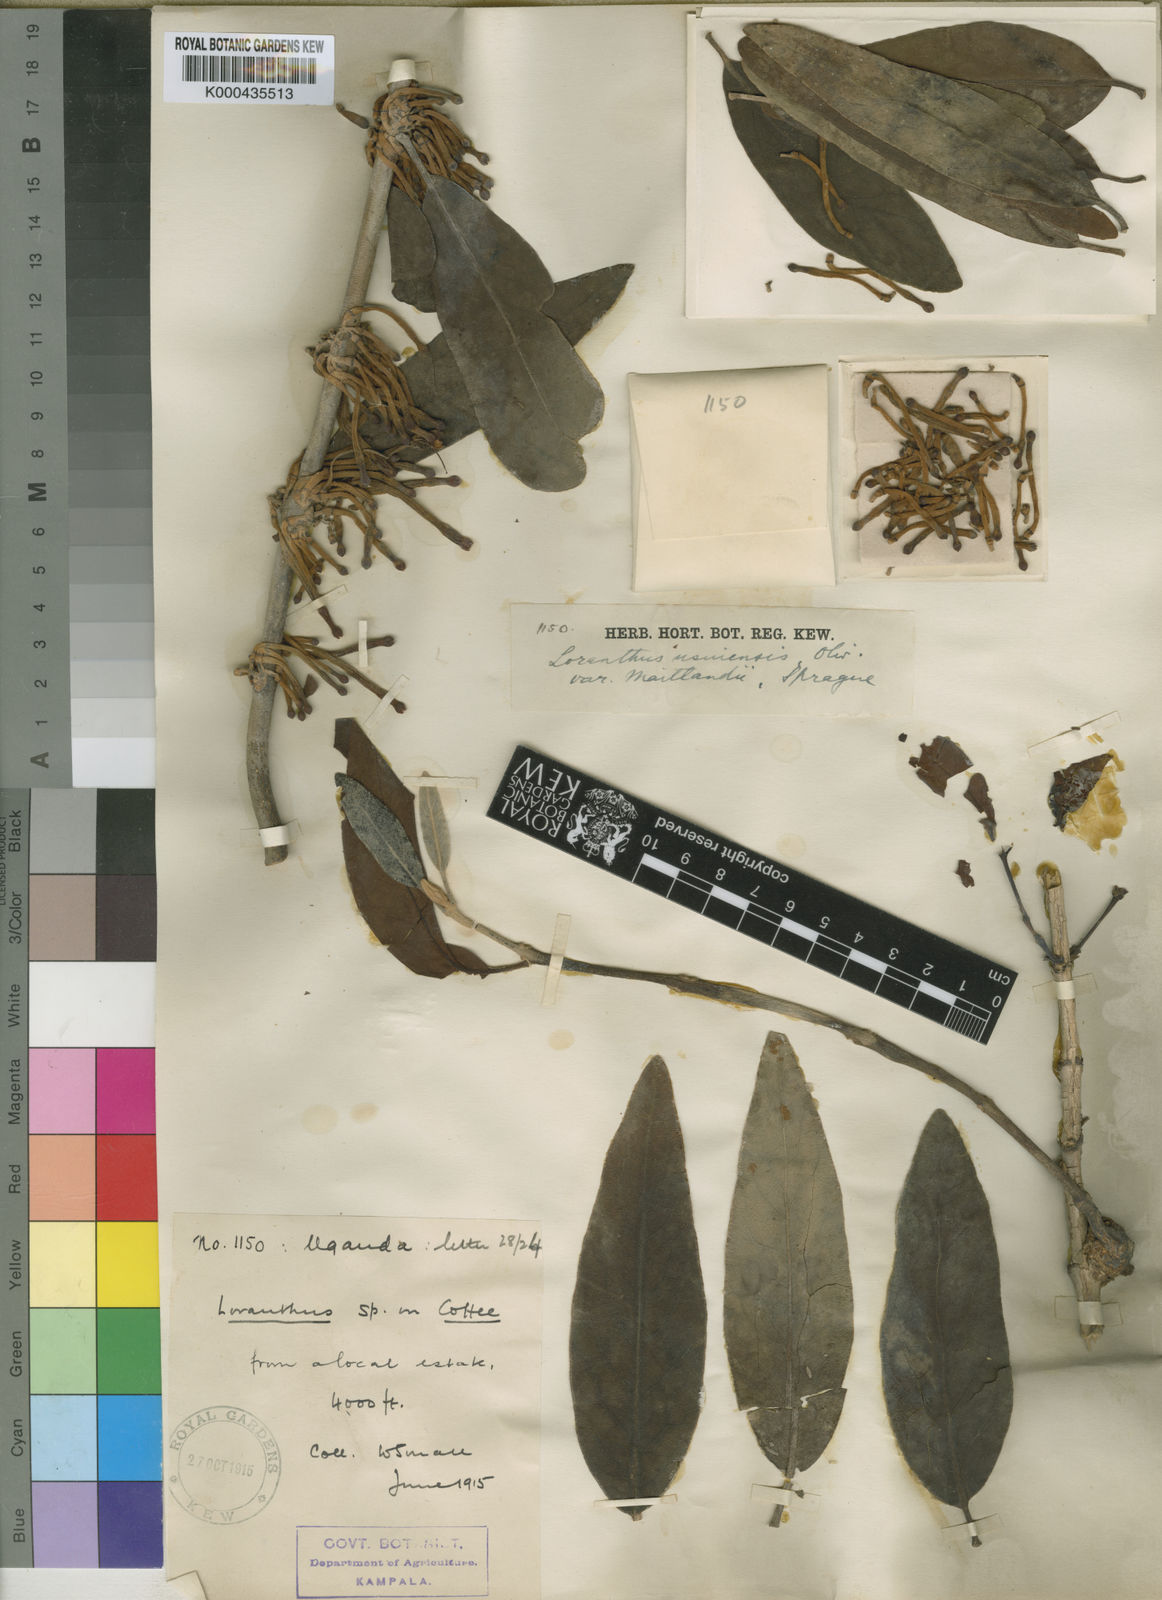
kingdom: Plantae
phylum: Tracheophyta
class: Magnoliopsida
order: Santalales
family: Loranthaceae
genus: Phragmanthera
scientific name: Phragmanthera usuiensis
